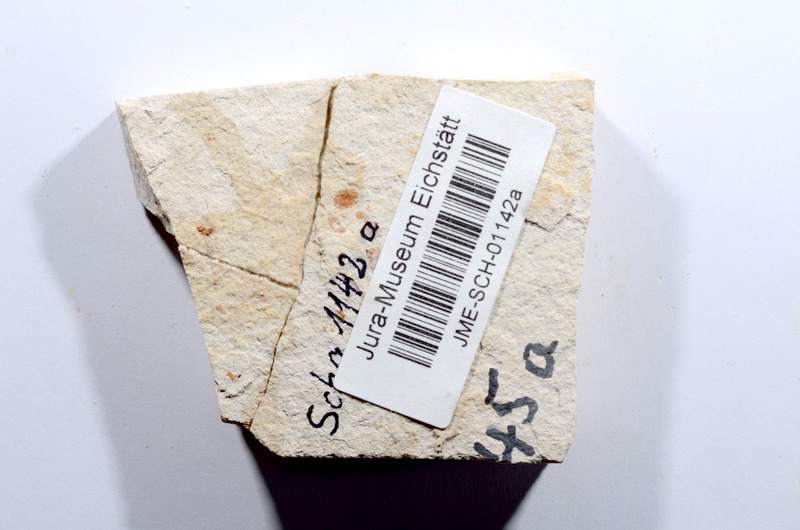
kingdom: Animalia
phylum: Chordata
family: Ascalaboidae
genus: Tharsis
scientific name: Tharsis dubius
